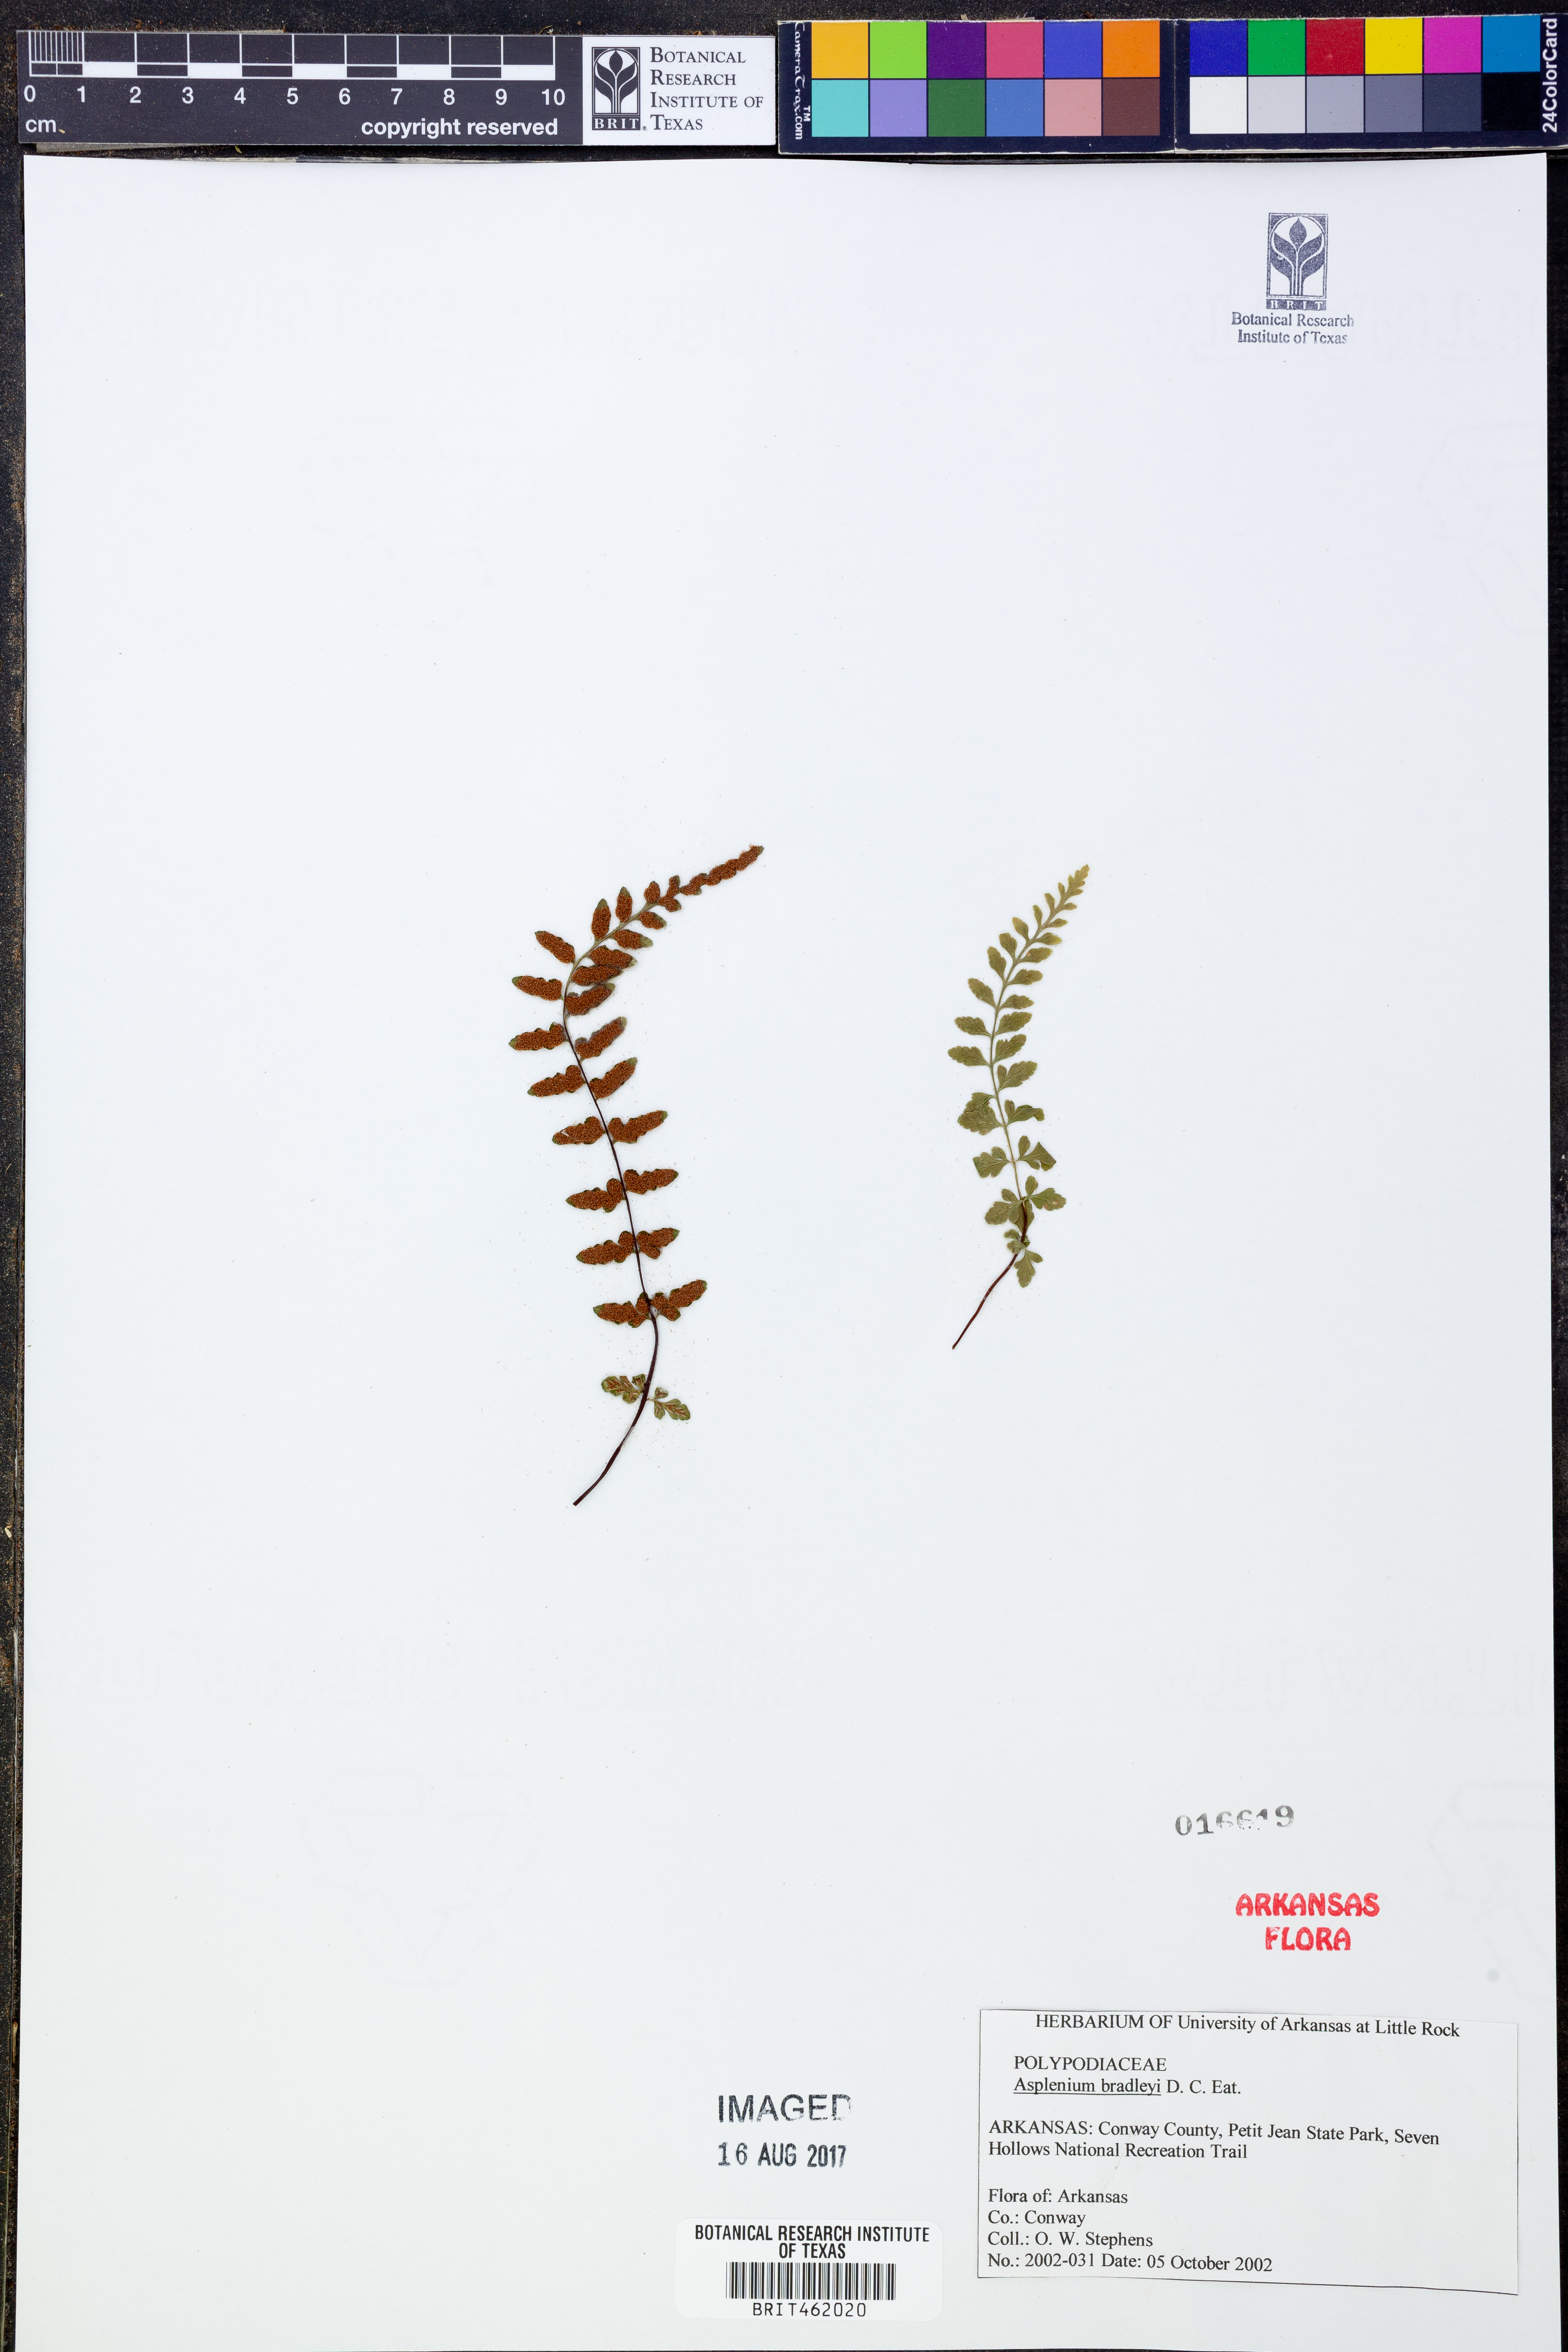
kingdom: Plantae
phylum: Tracheophyta
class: Polypodiopsida
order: Polypodiales
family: Aspleniaceae
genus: Asplenium
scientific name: Asplenium bradleyi
